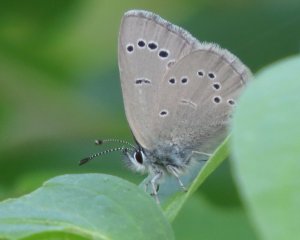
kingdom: Animalia
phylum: Arthropoda
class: Insecta
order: Lepidoptera
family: Lycaenidae
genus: Glaucopsyche
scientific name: Glaucopsyche lygdamus
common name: Silvery Blue
